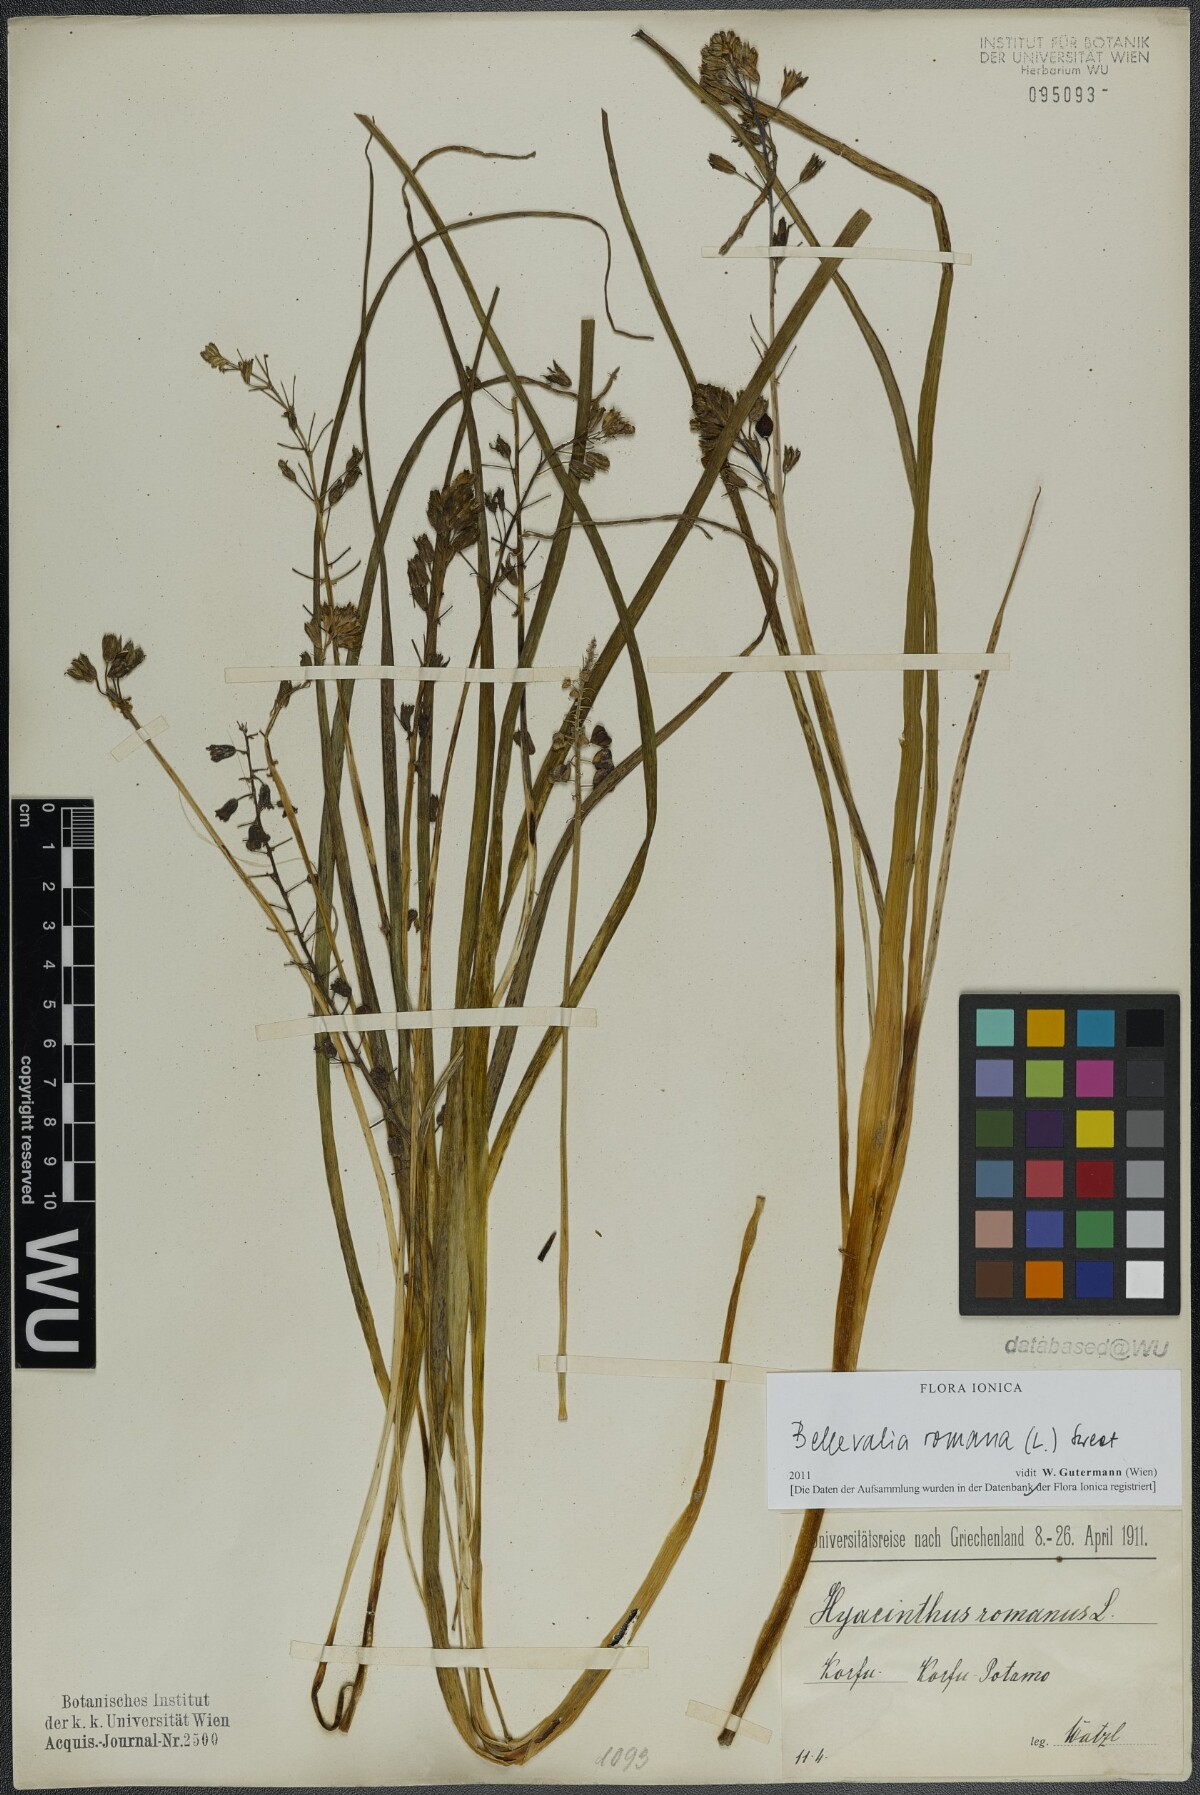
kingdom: Plantae
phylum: Tracheophyta
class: Liliopsida
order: Asparagales
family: Asparagaceae
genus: Bellevalia
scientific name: Bellevalia romana
